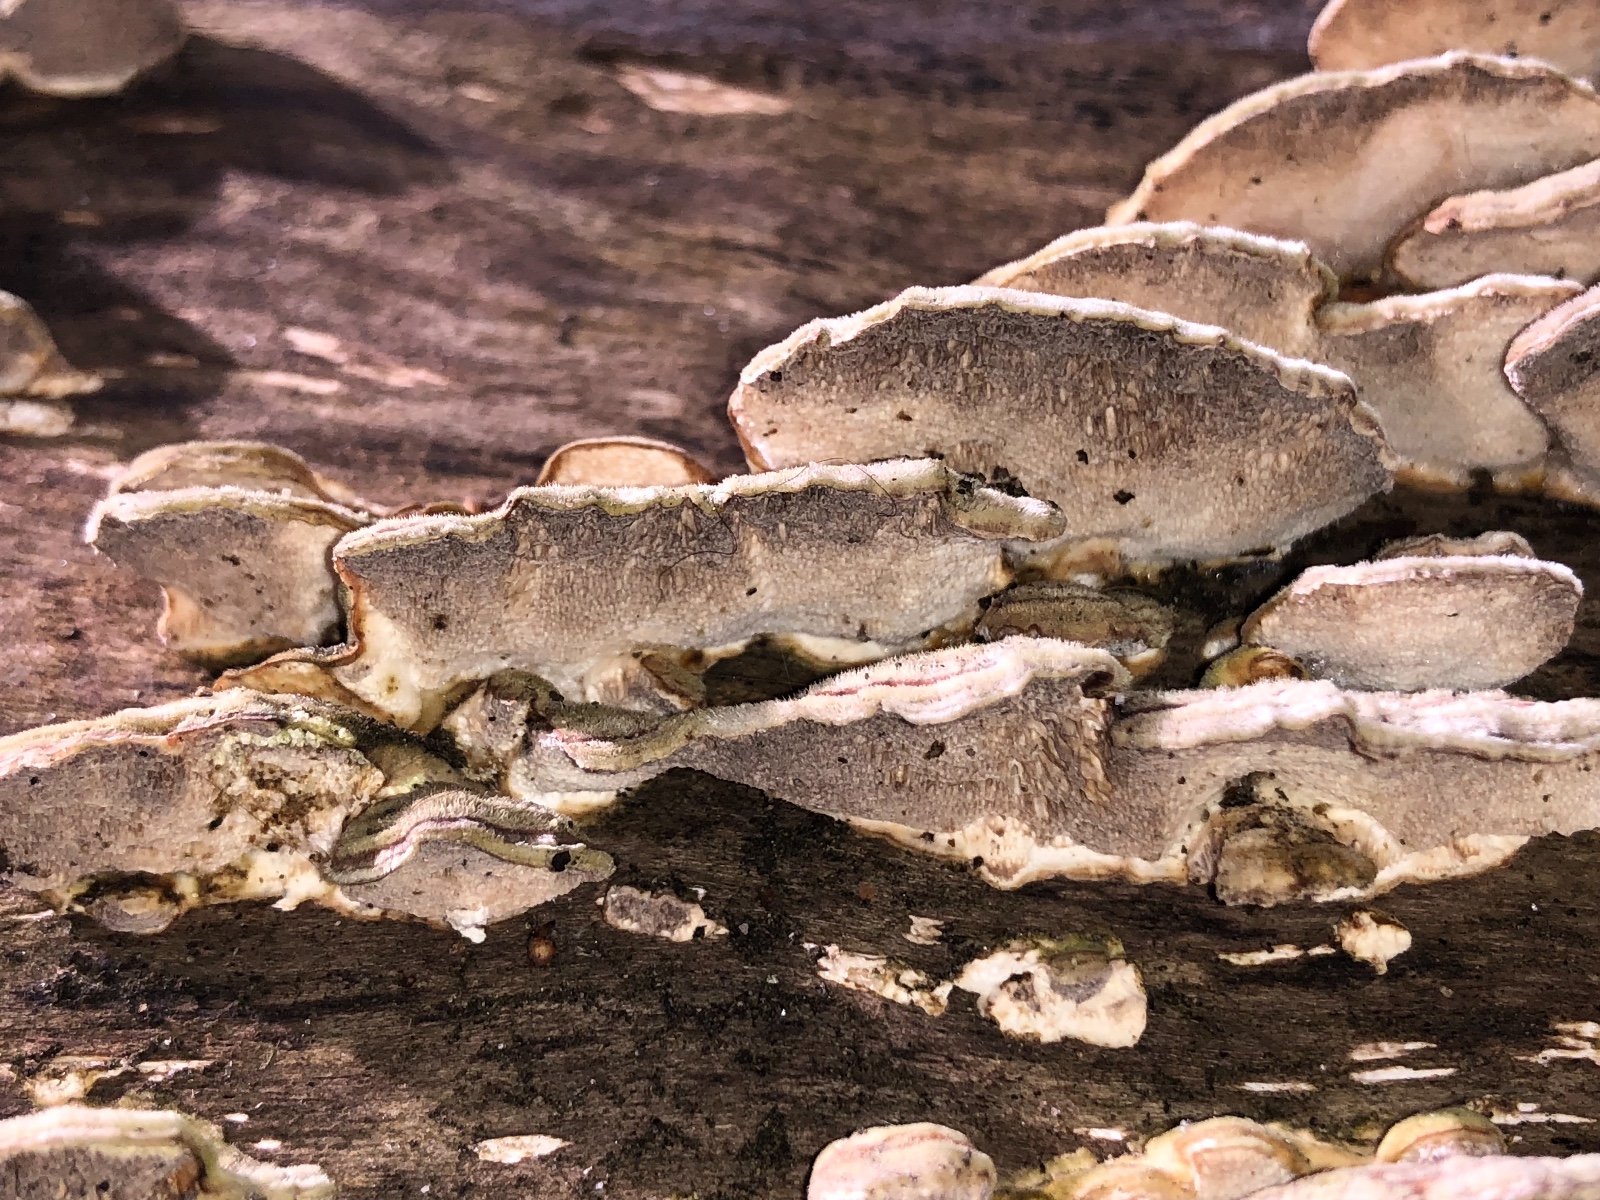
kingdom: Fungi
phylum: Basidiomycota
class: Agaricomycetes
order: Polyporales
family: Polyporaceae
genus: Trametes
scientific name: Trametes
